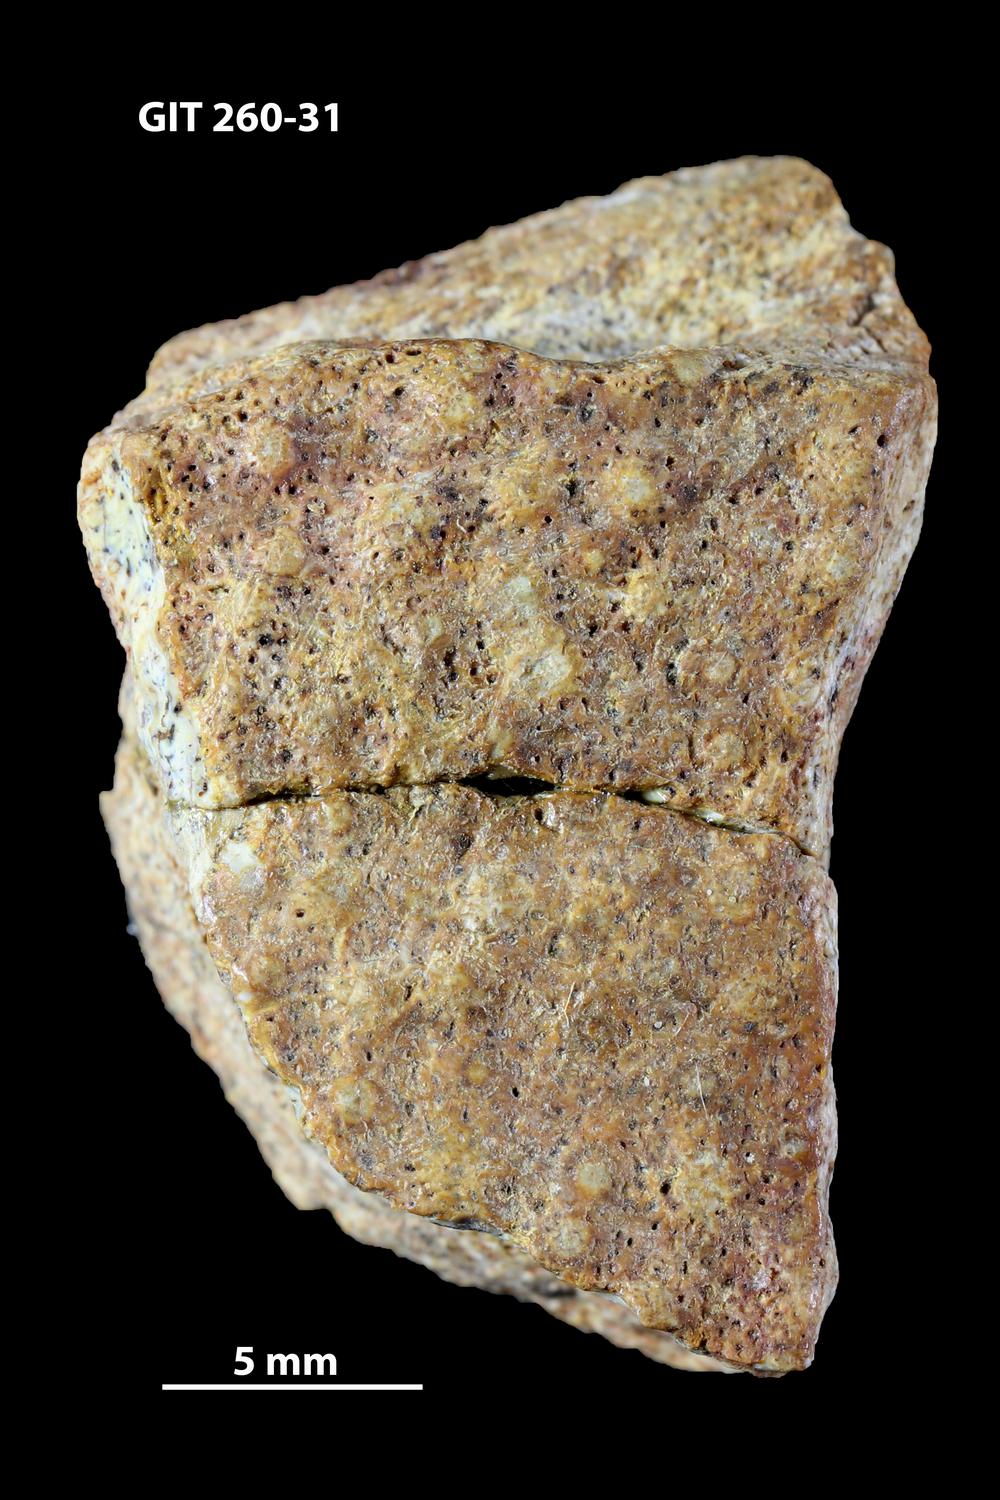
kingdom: Animalia
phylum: Chordata
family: Homostiidae
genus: Homostius
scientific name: Homostius
